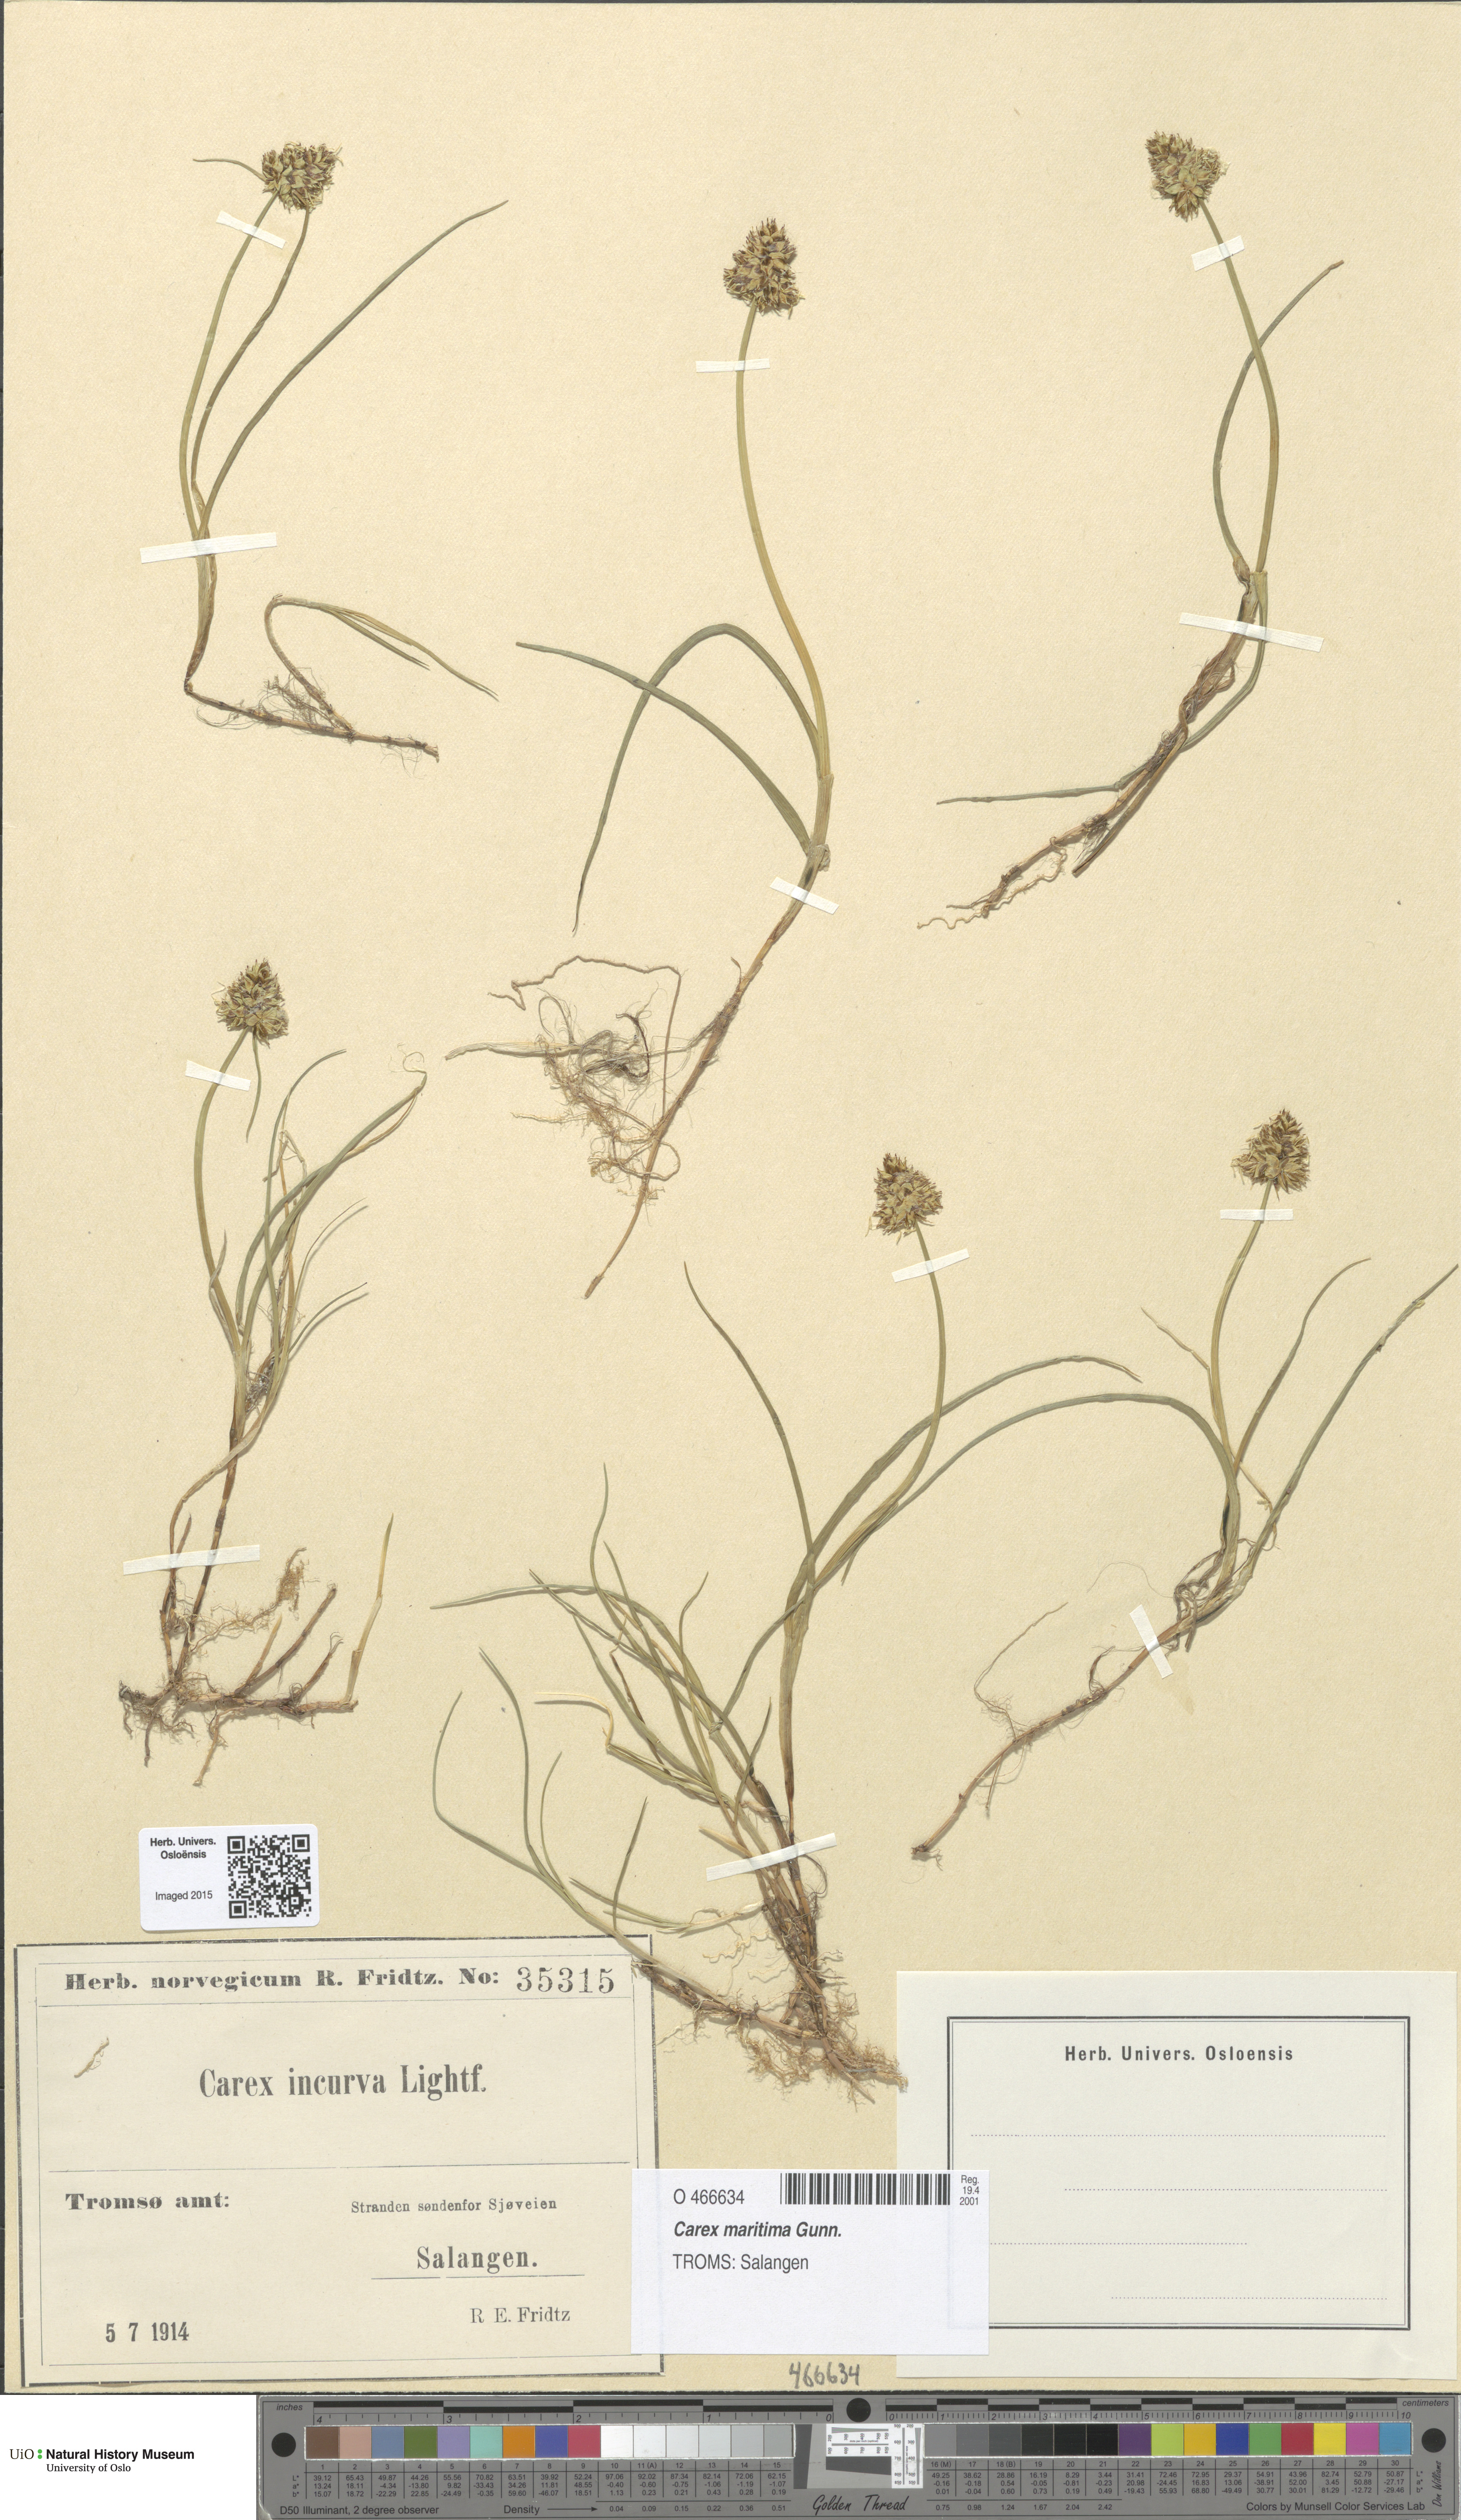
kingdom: Plantae
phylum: Tracheophyta
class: Liliopsida
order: Poales
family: Cyperaceae
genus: Carex
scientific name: Carex maritima
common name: Curved sedge
